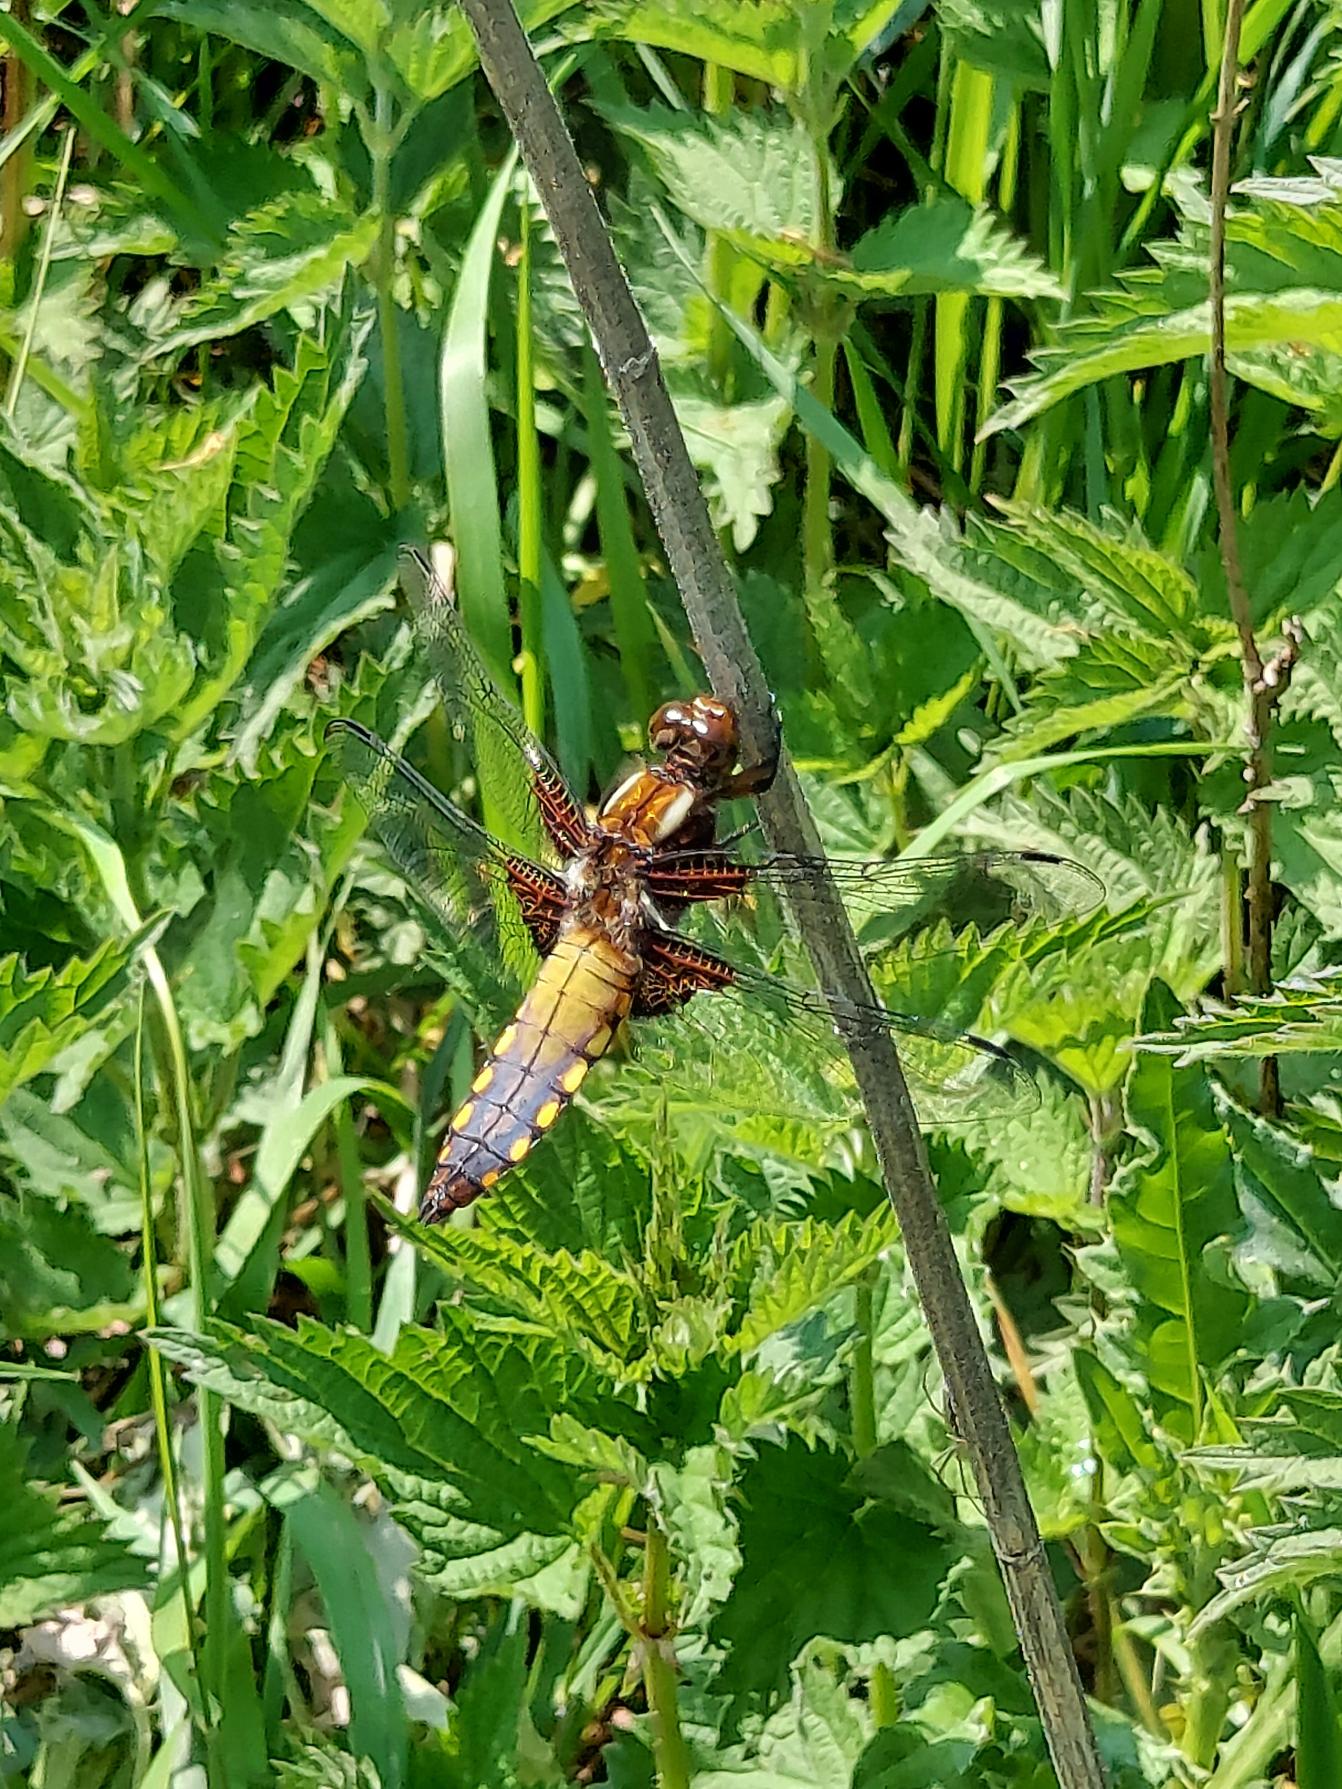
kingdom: Animalia
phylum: Arthropoda
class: Insecta
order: Odonata
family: Libellulidae
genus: Libellula
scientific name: Libellula depressa
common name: Blå libel
